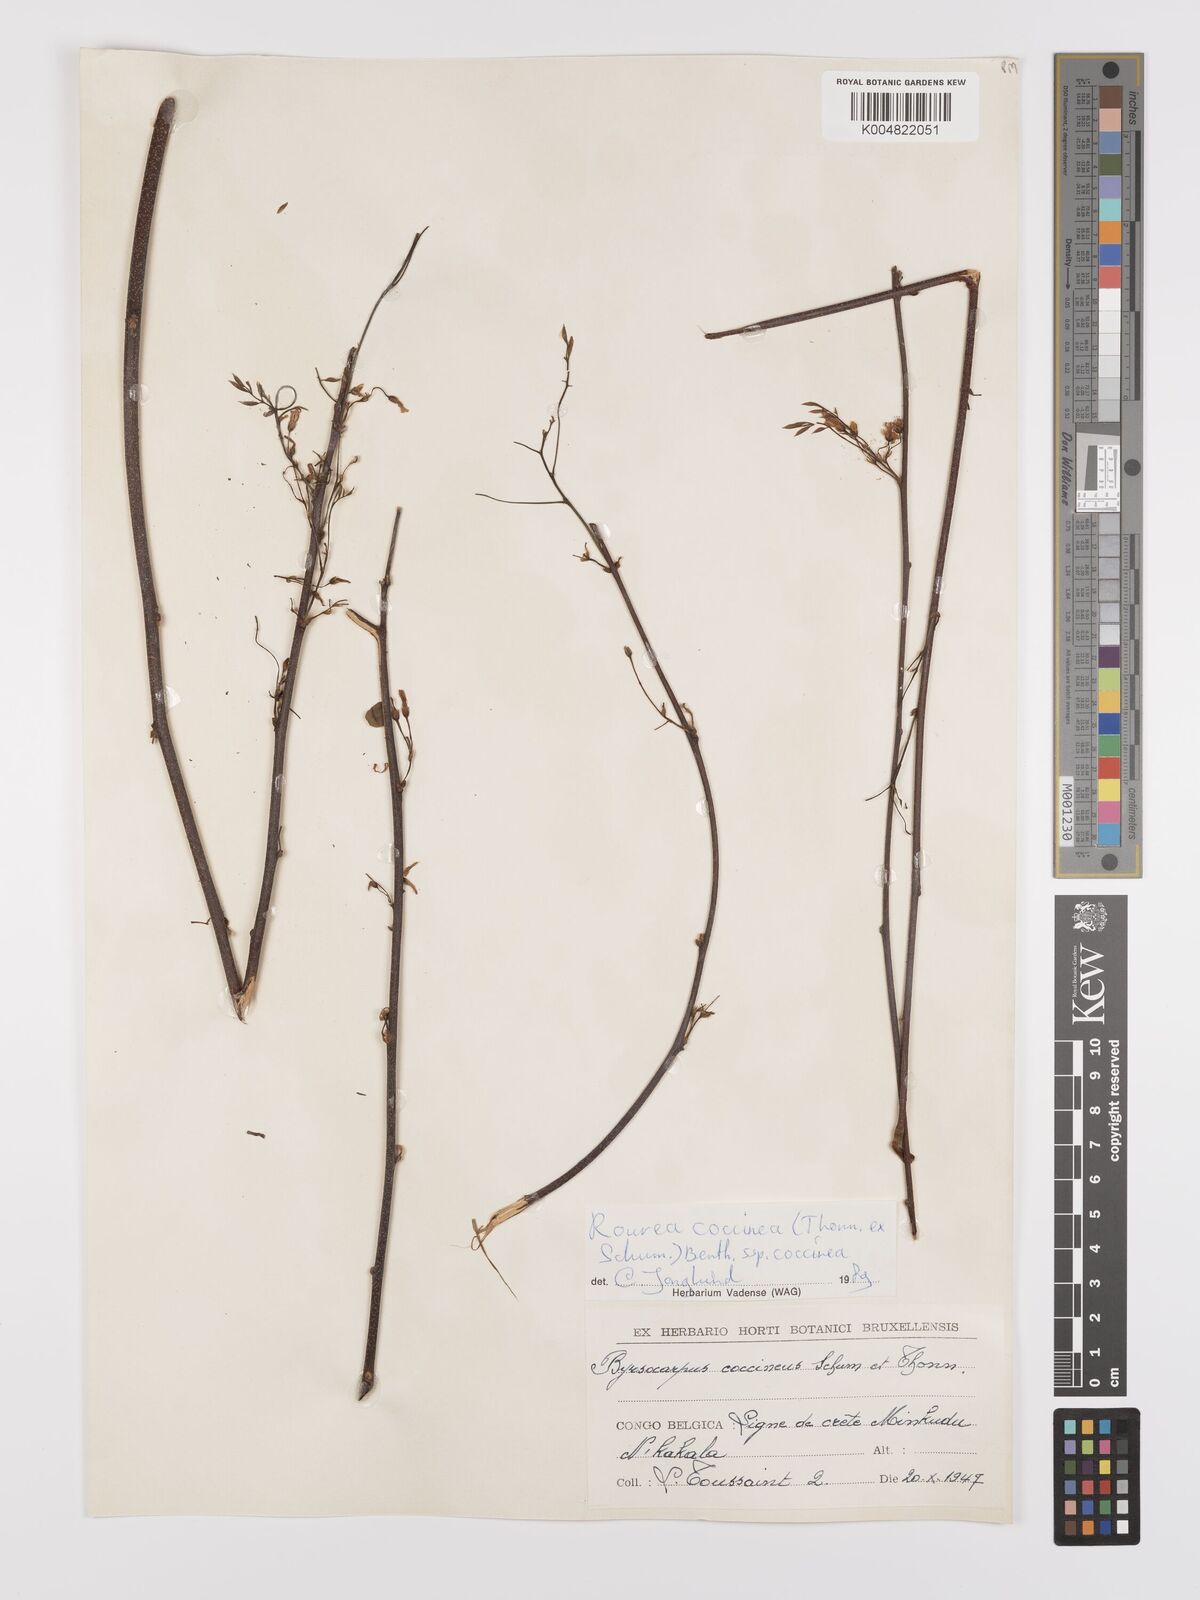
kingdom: Plantae
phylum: Tracheophyta
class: Magnoliopsida
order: Oxalidales
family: Connaraceae
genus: Rourea
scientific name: Rourea coccinea
